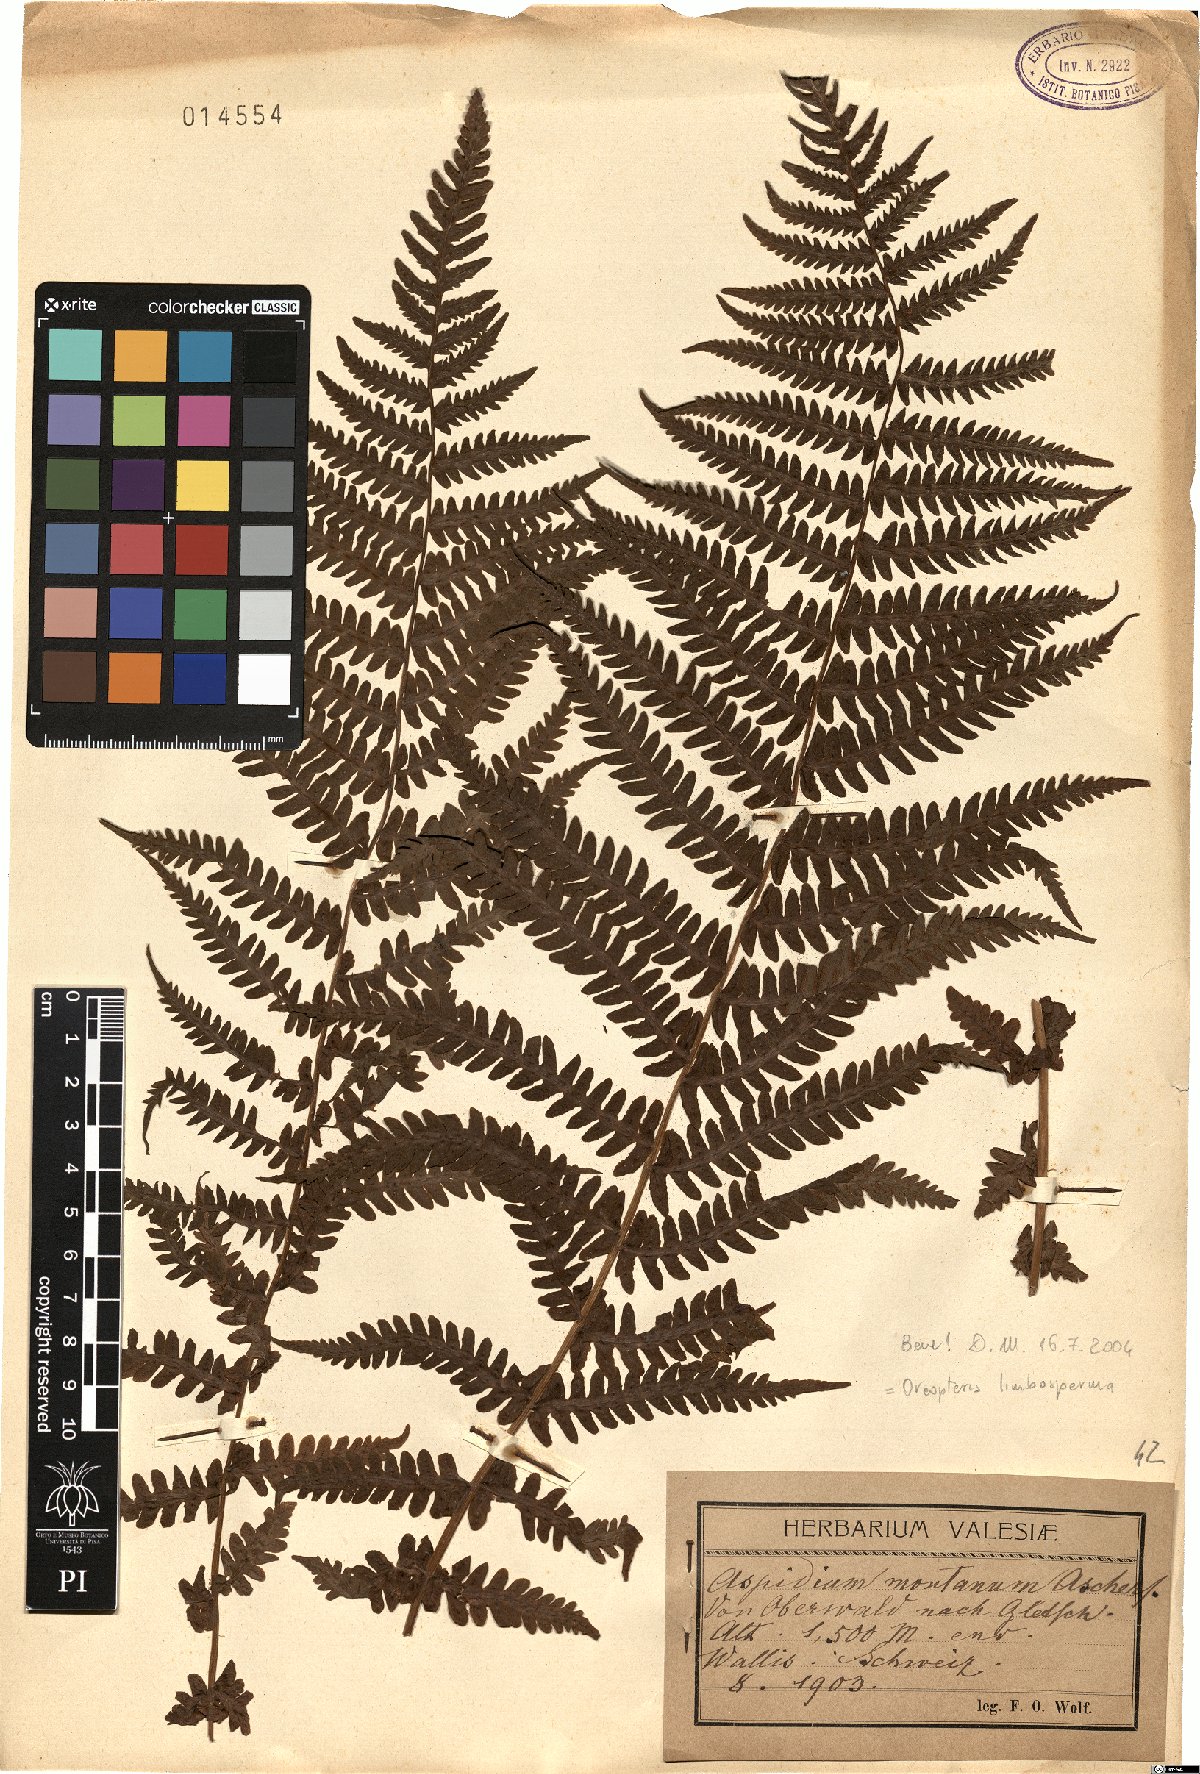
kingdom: Plantae
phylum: Tracheophyta
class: Polypodiopsida
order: Polypodiales
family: Thelypteridaceae
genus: Oreopteris
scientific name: Oreopteris limbosperma
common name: Lemon-scented fern
